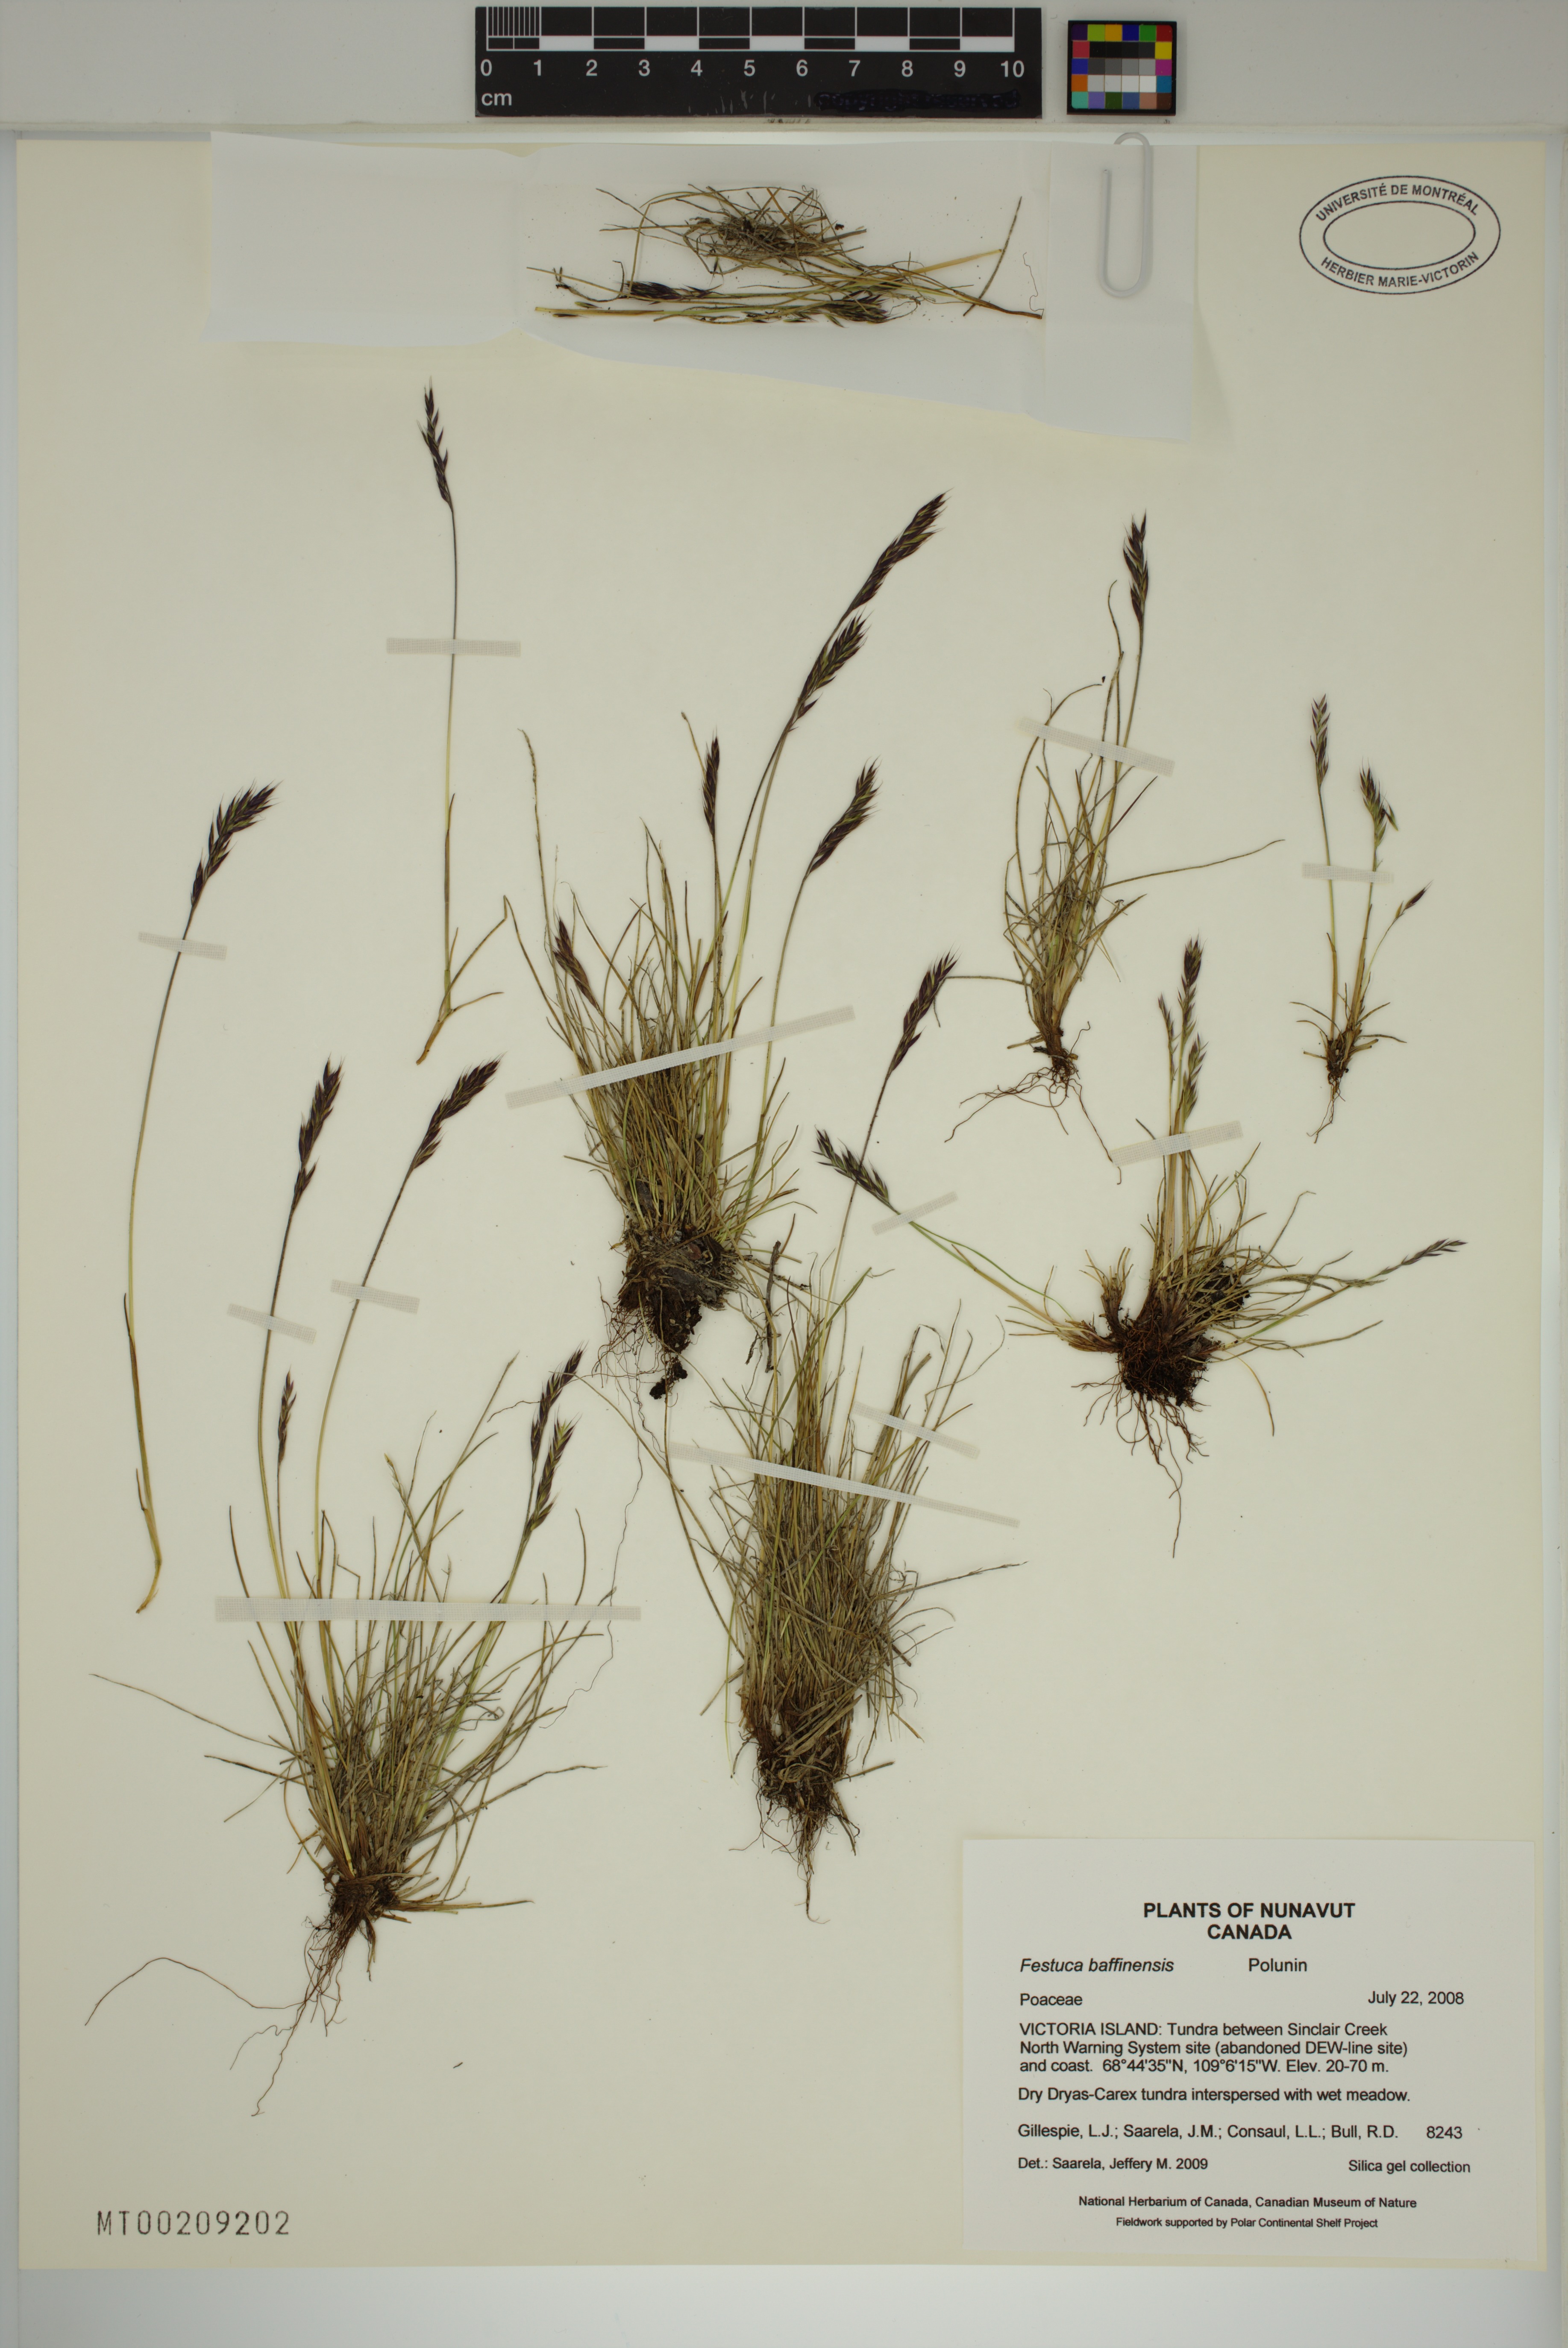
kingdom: Plantae
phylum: Tracheophyta
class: Liliopsida
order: Poales
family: Poaceae
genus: Festuca
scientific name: Festuca baffinensis
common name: Baffin island fescue
